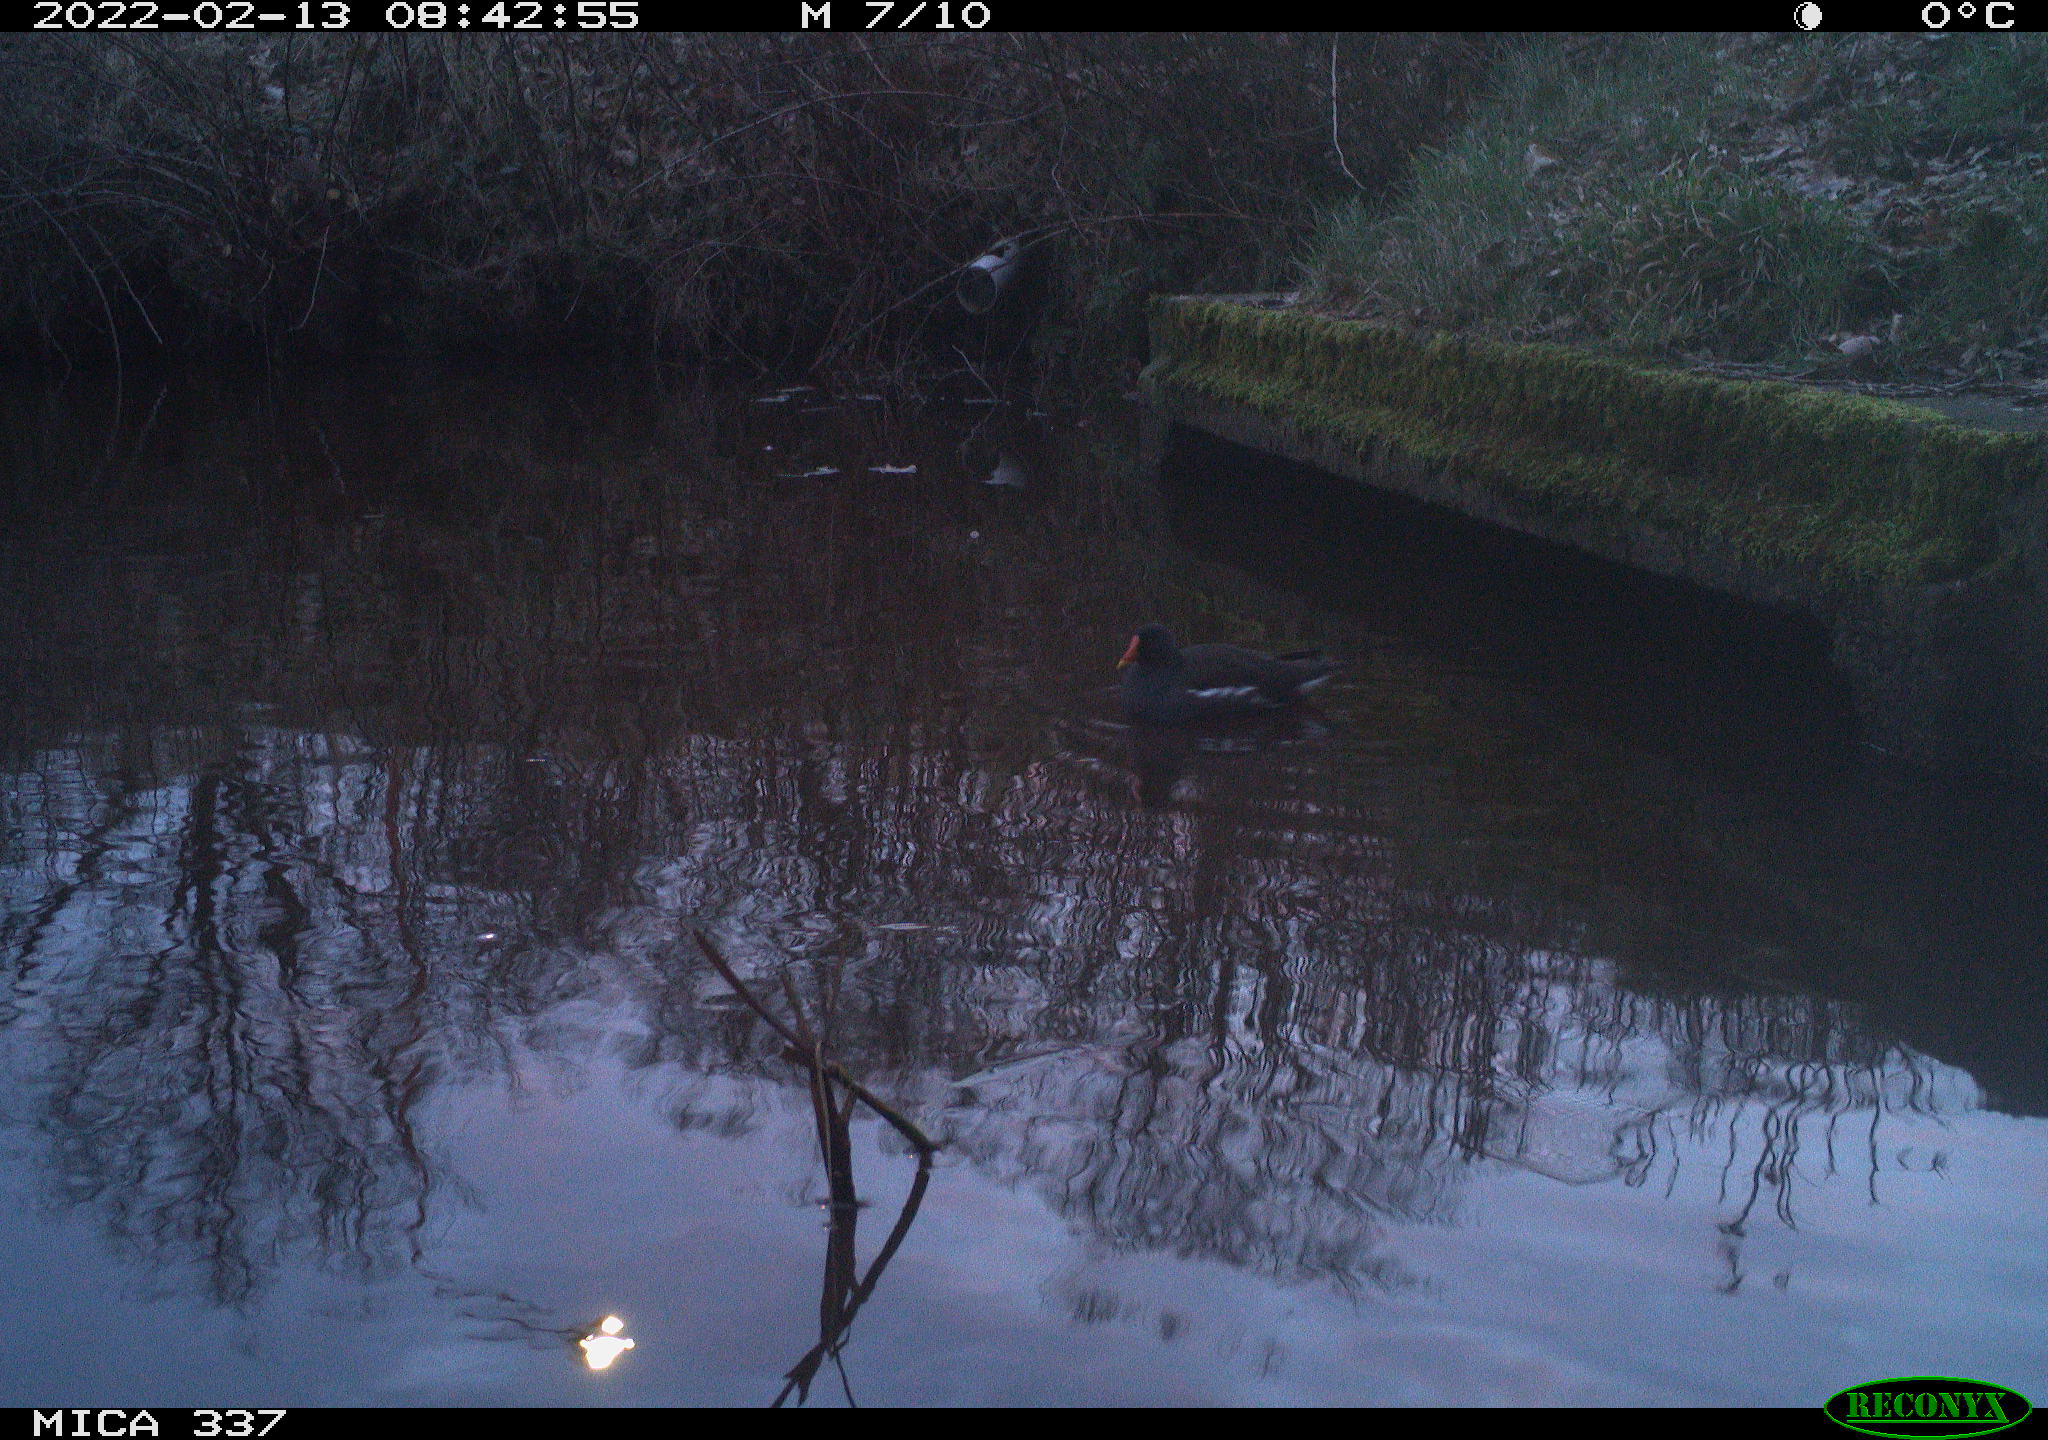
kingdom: Animalia
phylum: Chordata
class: Aves
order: Gruiformes
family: Rallidae
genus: Gallinula
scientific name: Gallinula chloropus
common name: Common moorhen
